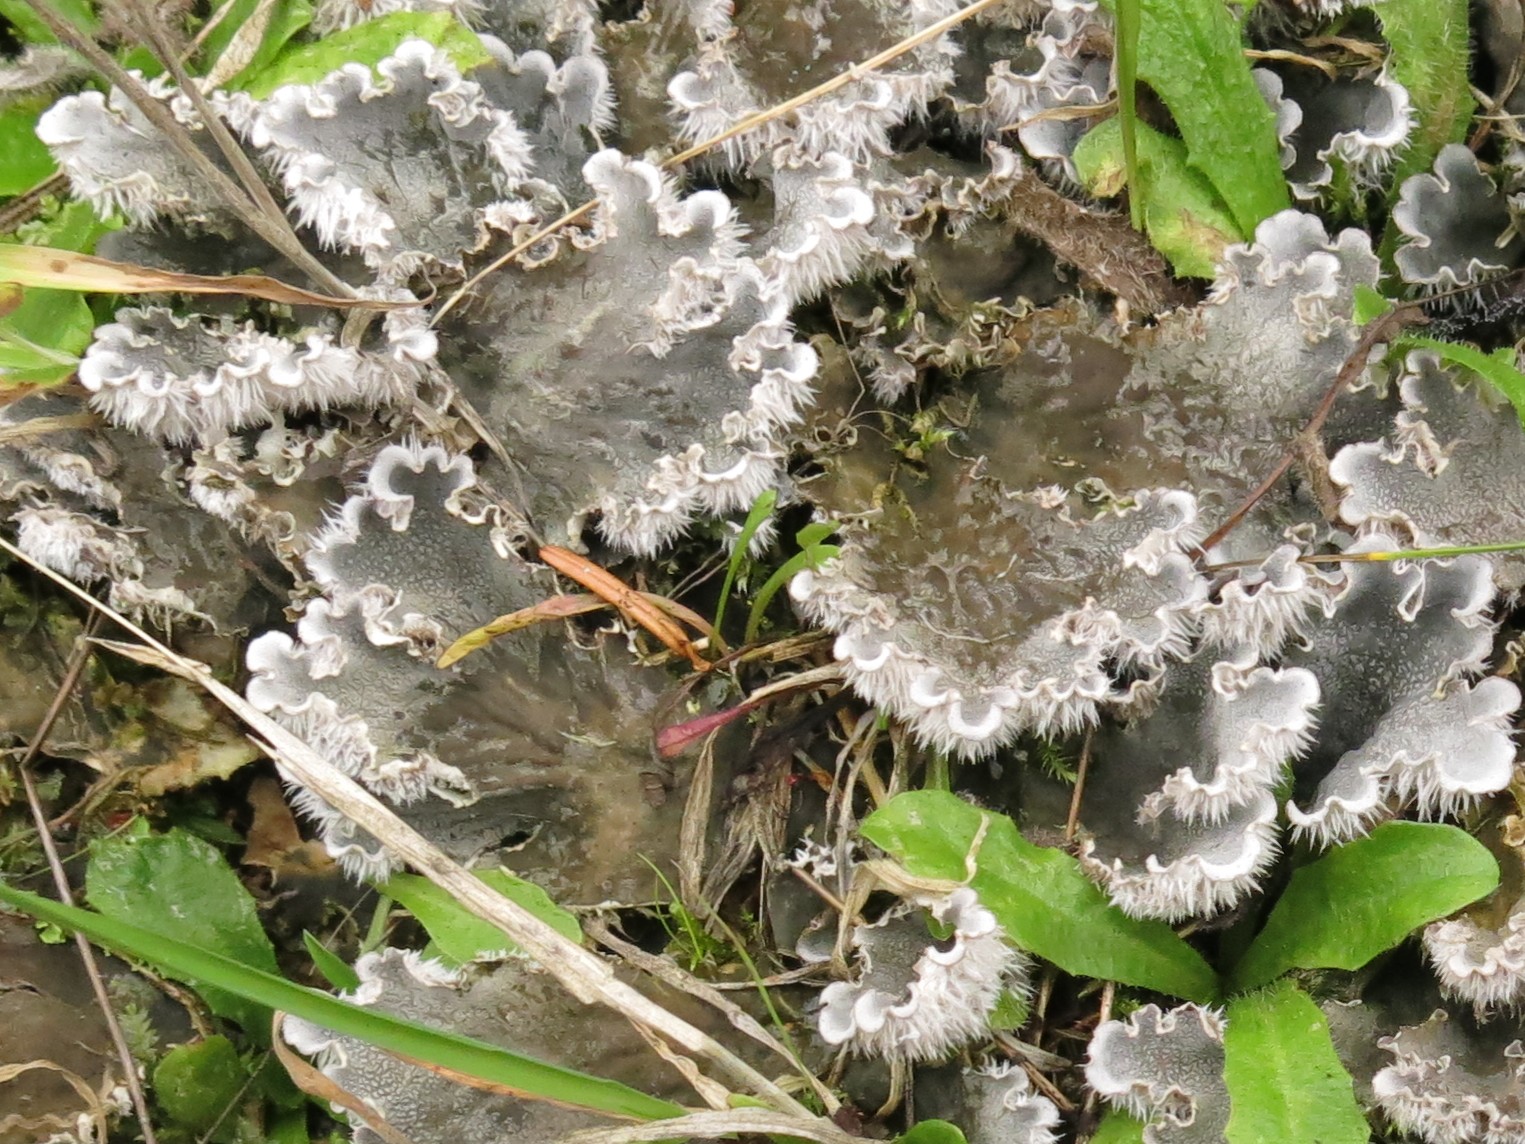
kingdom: Fungi
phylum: Ascomycota
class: Lecanoromycetes
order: Peltigerales
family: Peltigeraceae
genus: Peltigera
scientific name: Peltigera canina
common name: hunde-skjoldlav
